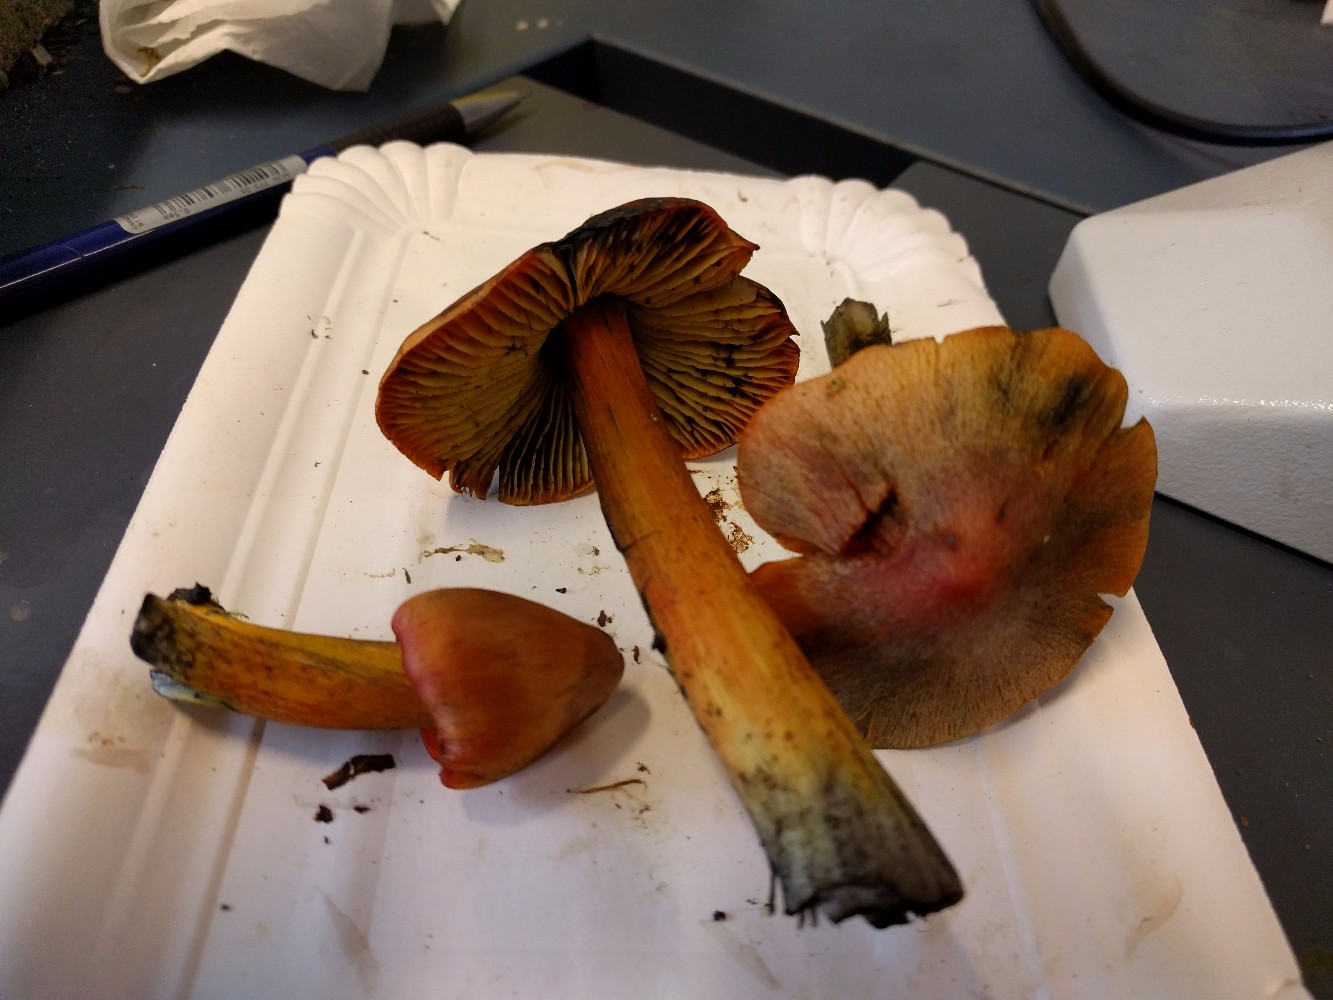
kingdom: Fungi
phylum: Basidiomycota
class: Agaricomycetes
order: Agaricales
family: Hygrophoraceae
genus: Hygrocybe
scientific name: Hygrocybe conica
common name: kegle-vokshat
